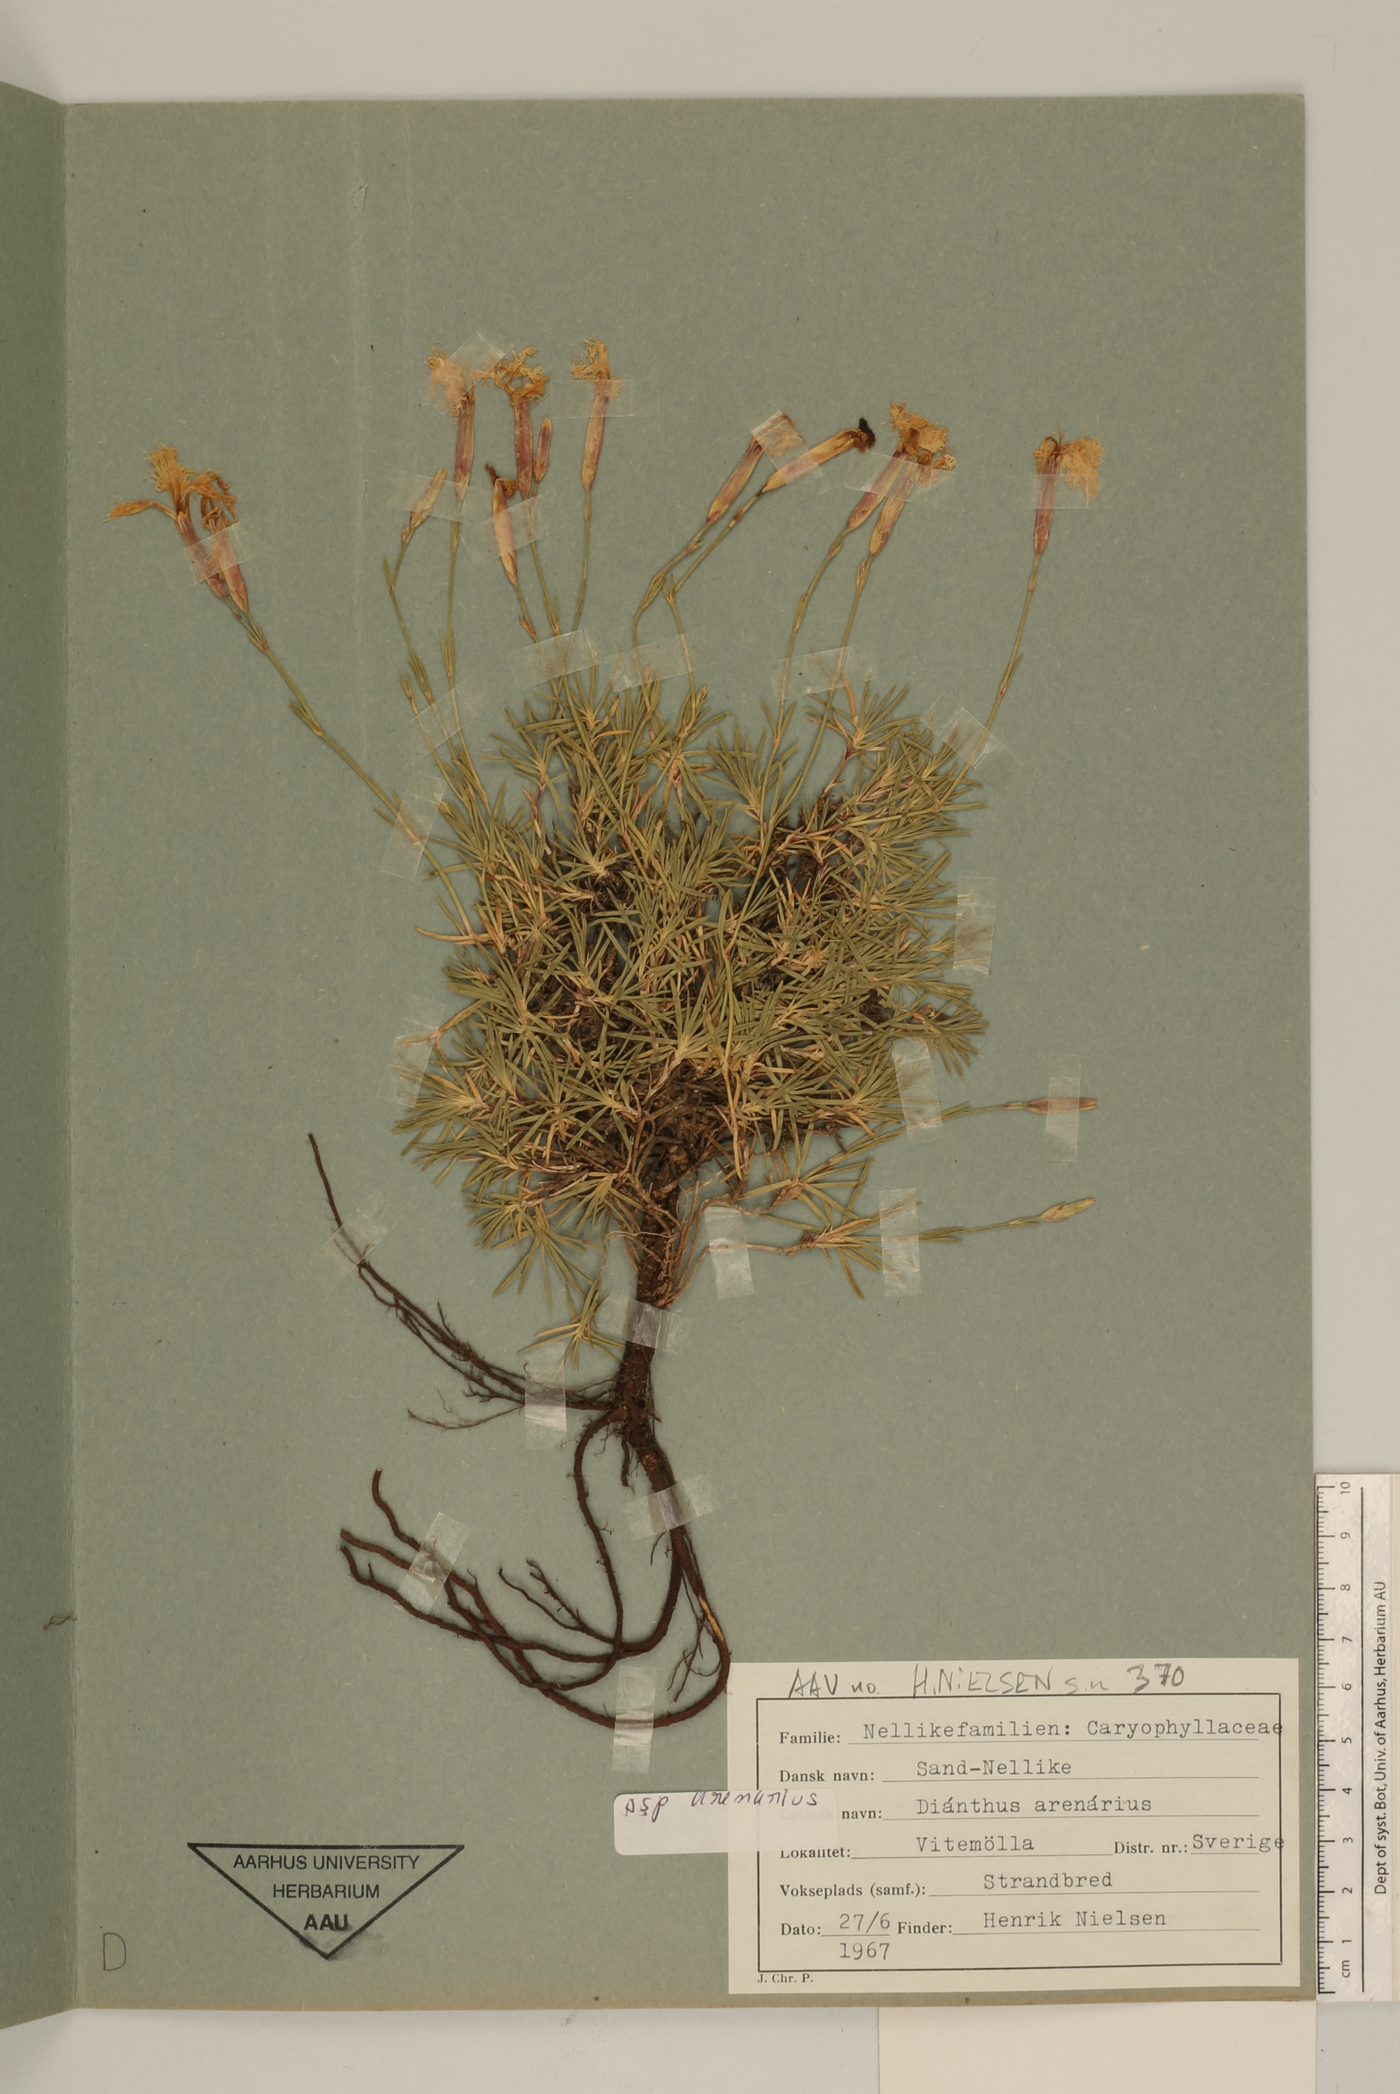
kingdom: Plantae
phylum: Tracheophyta
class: Magnoliopsida
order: Caryophyllales
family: Caryophyllaceae
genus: Dianthus
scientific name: Dianthus arenarius
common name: Stone pink
